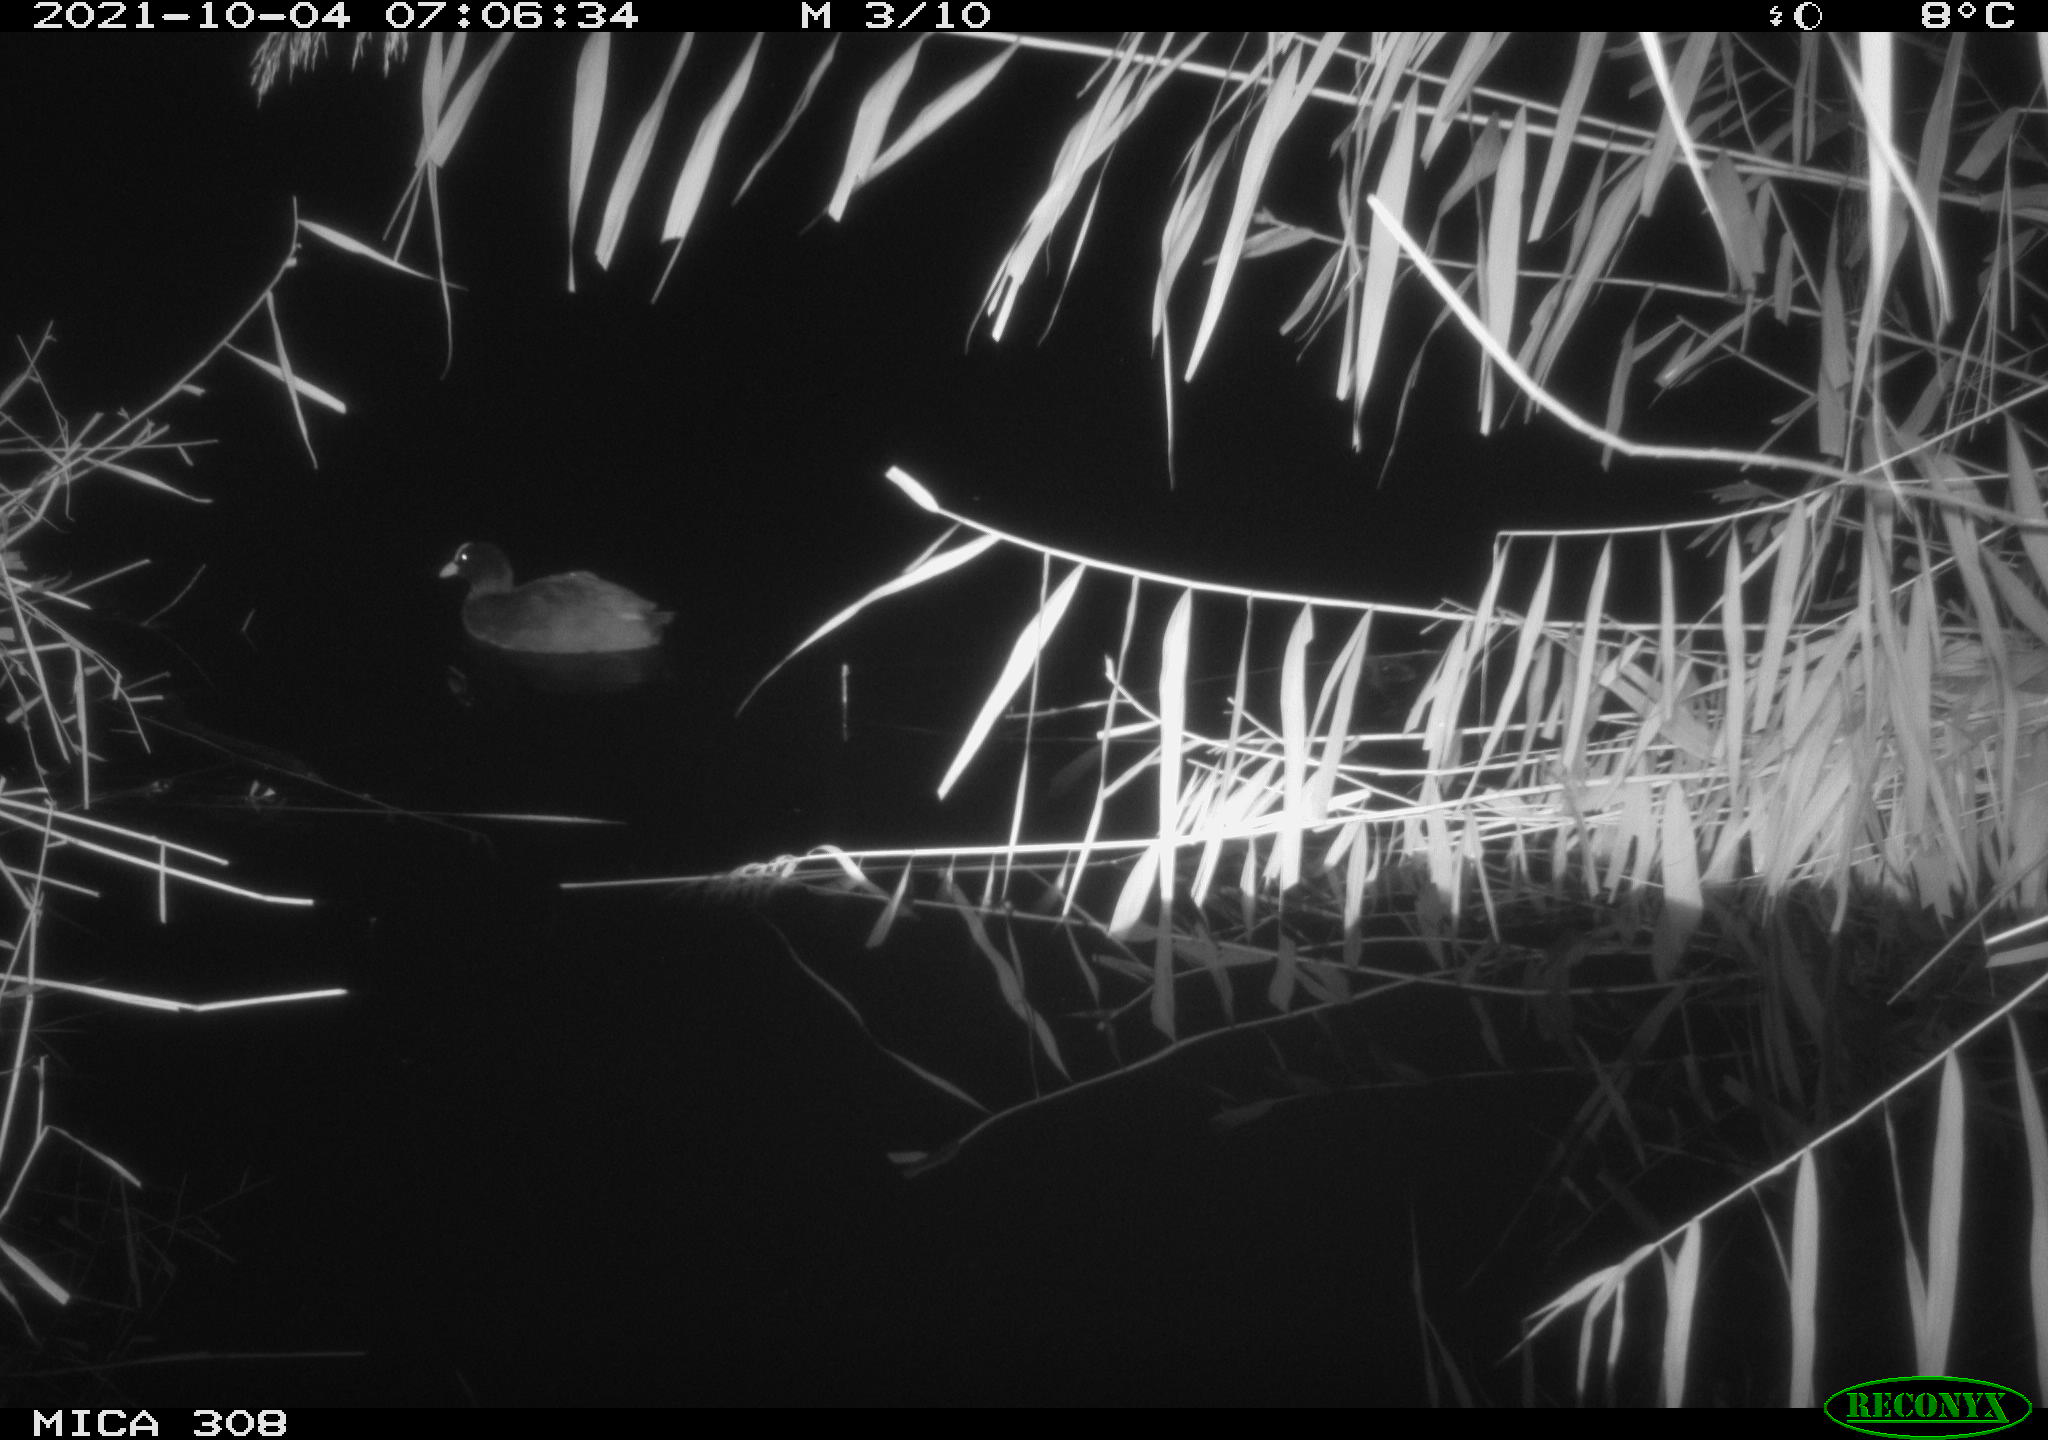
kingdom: Animalia
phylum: Chordata
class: Aves
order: Gruiformes
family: Rallidae
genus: Fulica
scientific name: Fulica atra
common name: Eurasian coot
